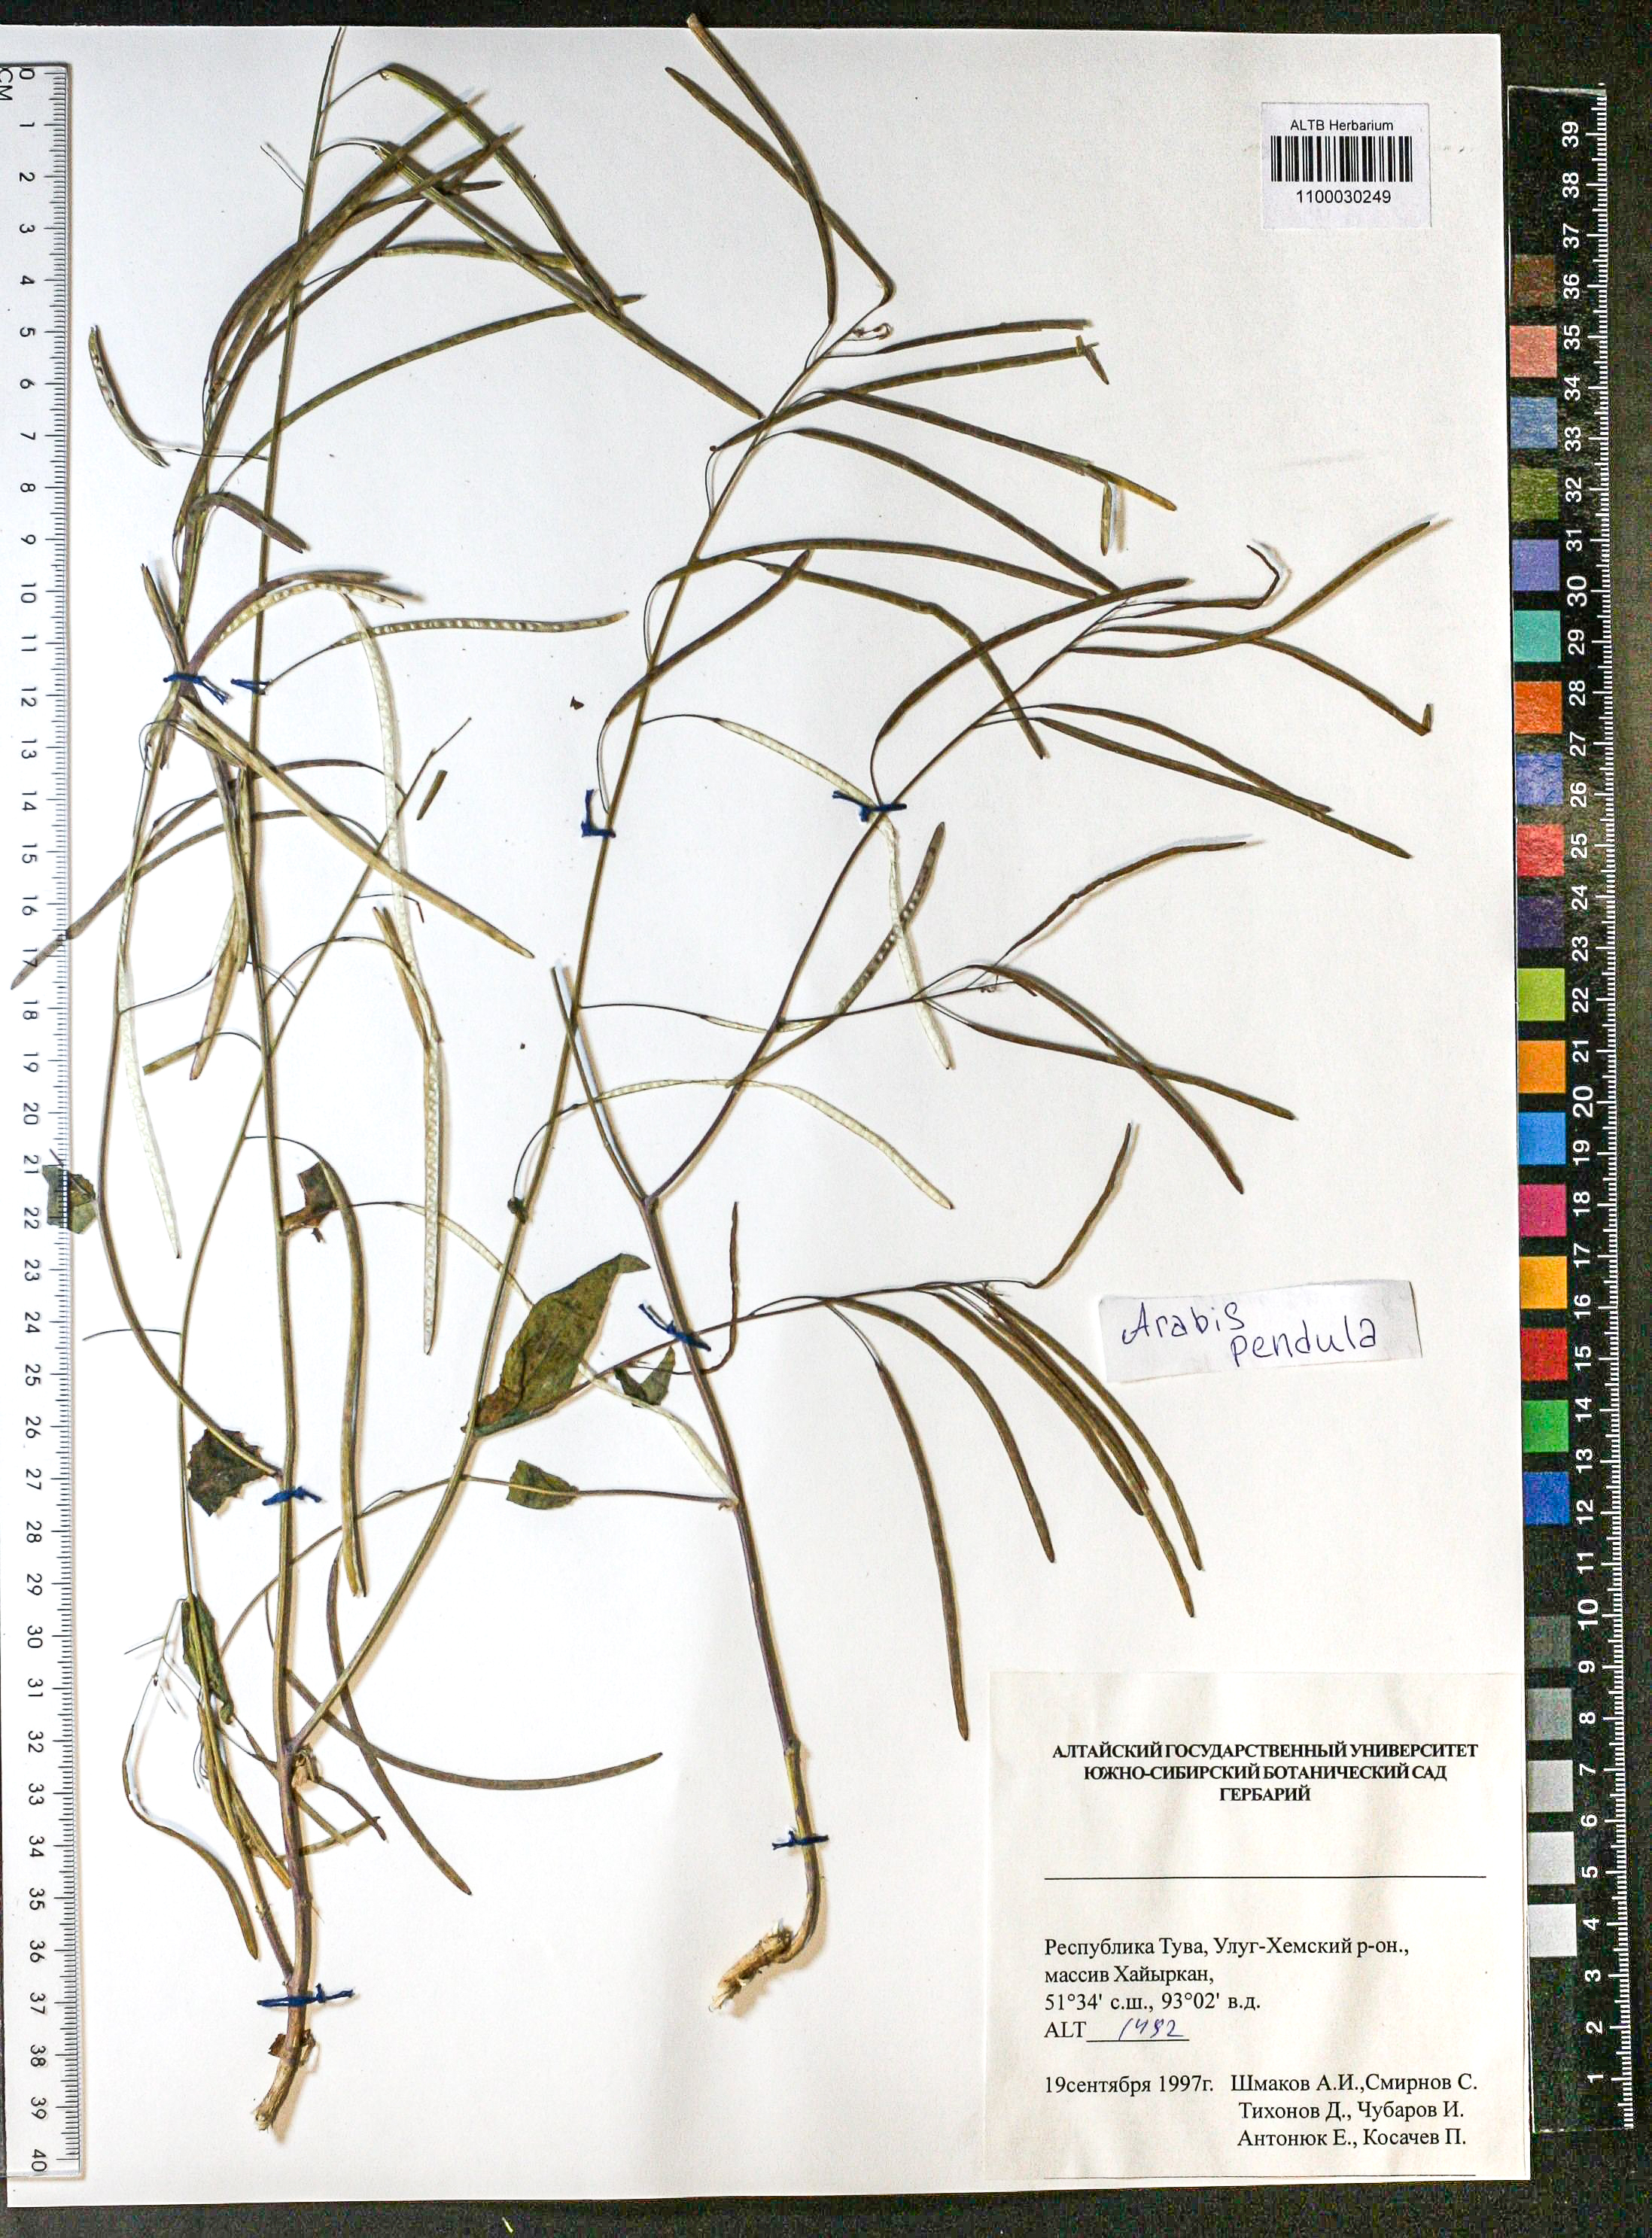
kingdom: Plantae
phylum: Tracheophyta
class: Magnoliopsida
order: Brassicales
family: Brassicaceae
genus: Catolobus
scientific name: Catolobus pendulus
